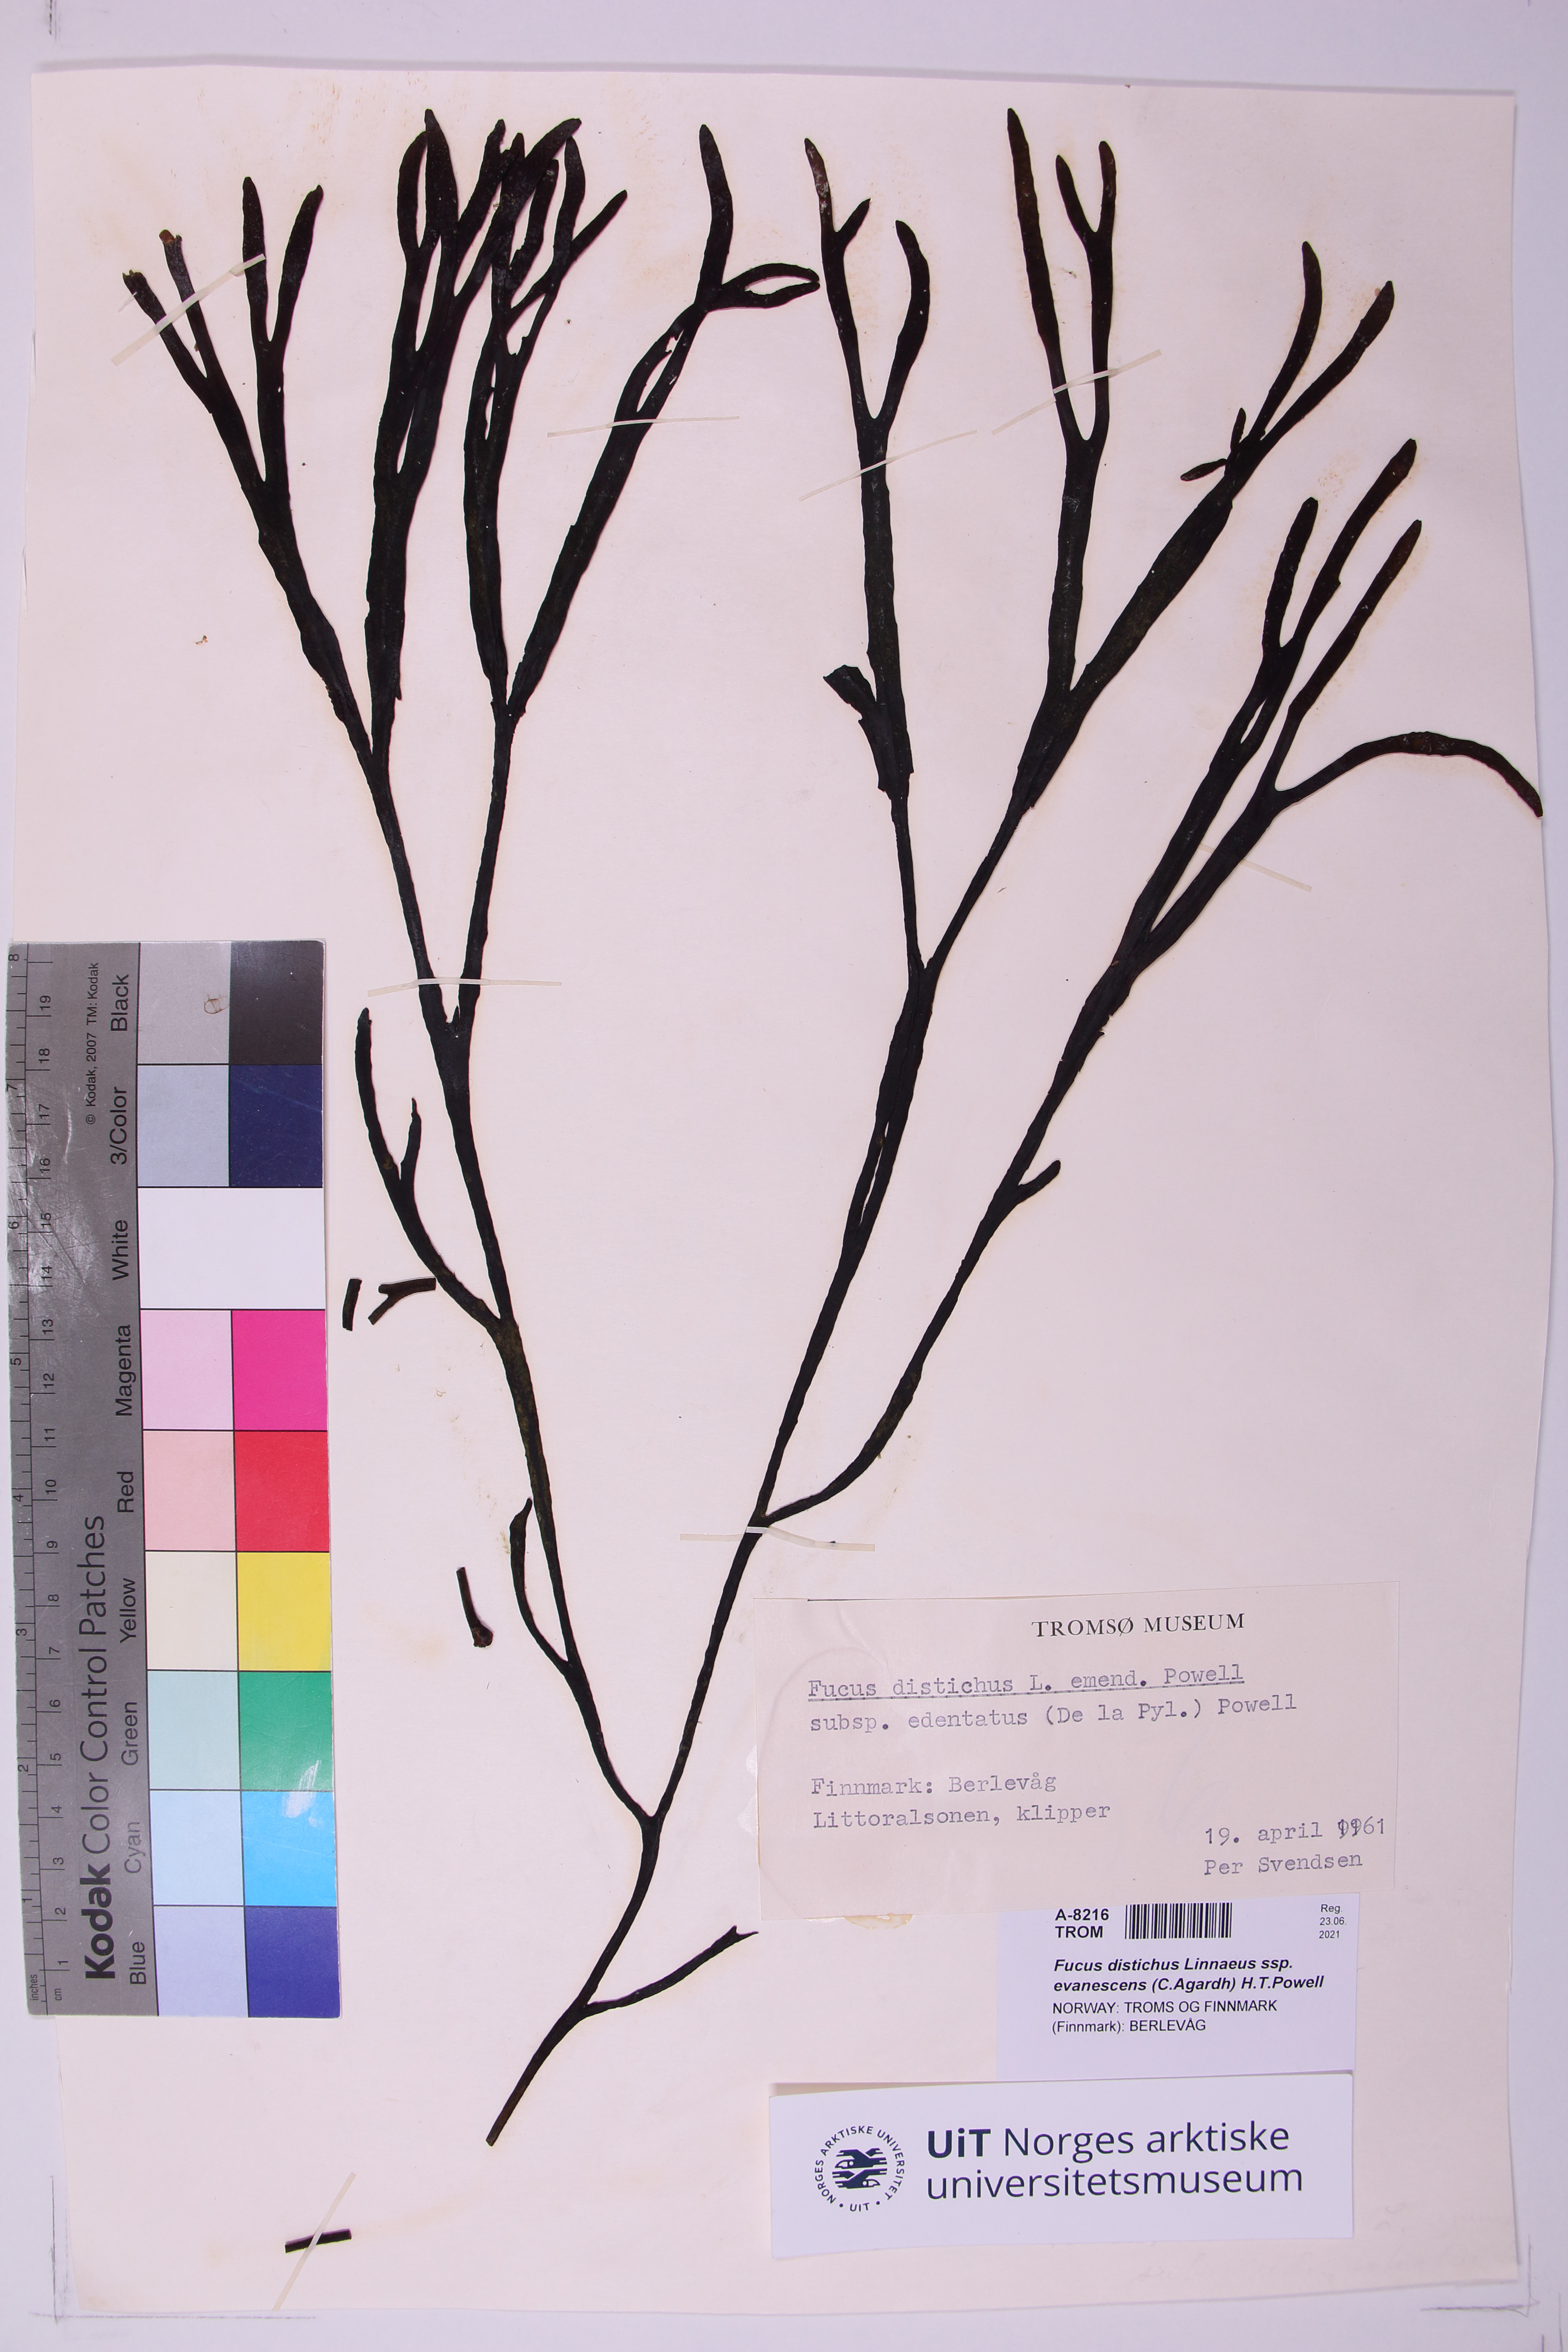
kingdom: Chromista
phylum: Ochrophyta
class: Phaeophyceae
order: Fucales
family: Fucaceae
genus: Fucus
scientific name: Fucus evanescens
